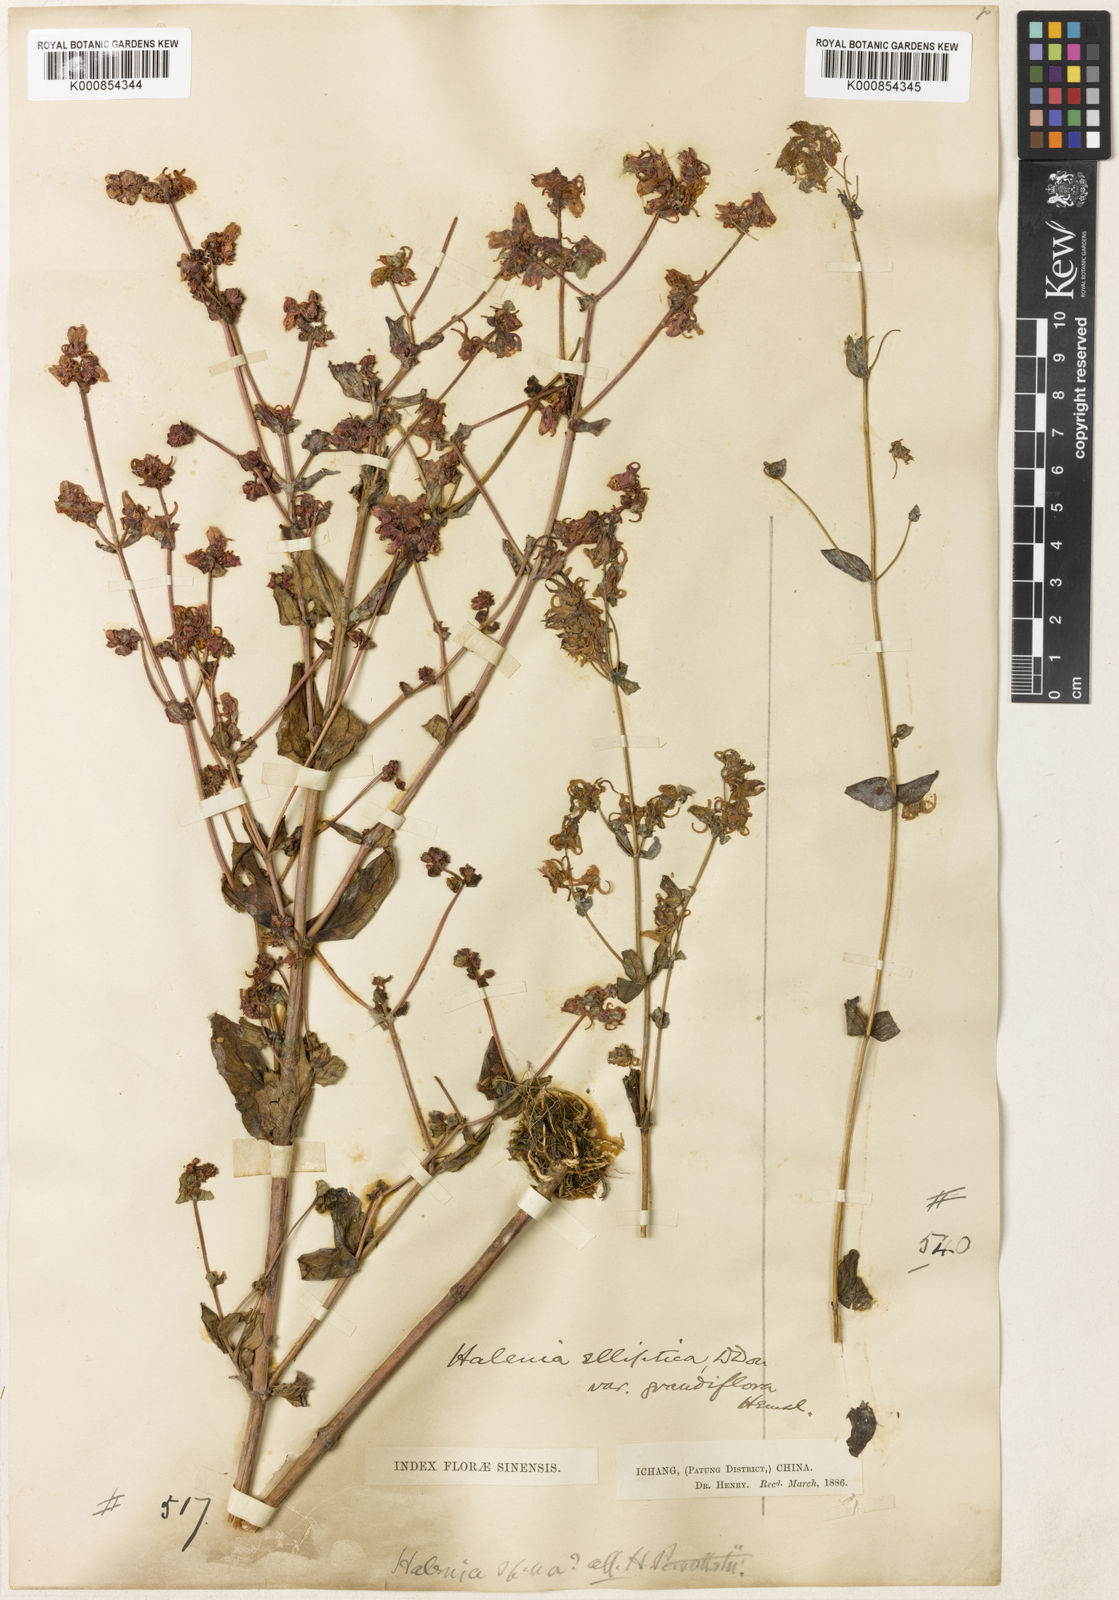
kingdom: Plantae
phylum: Tracheophyta
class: Magnoliopsida
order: Gentianales
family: Gentianaceae
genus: Halenia
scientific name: Halenia elliptica
